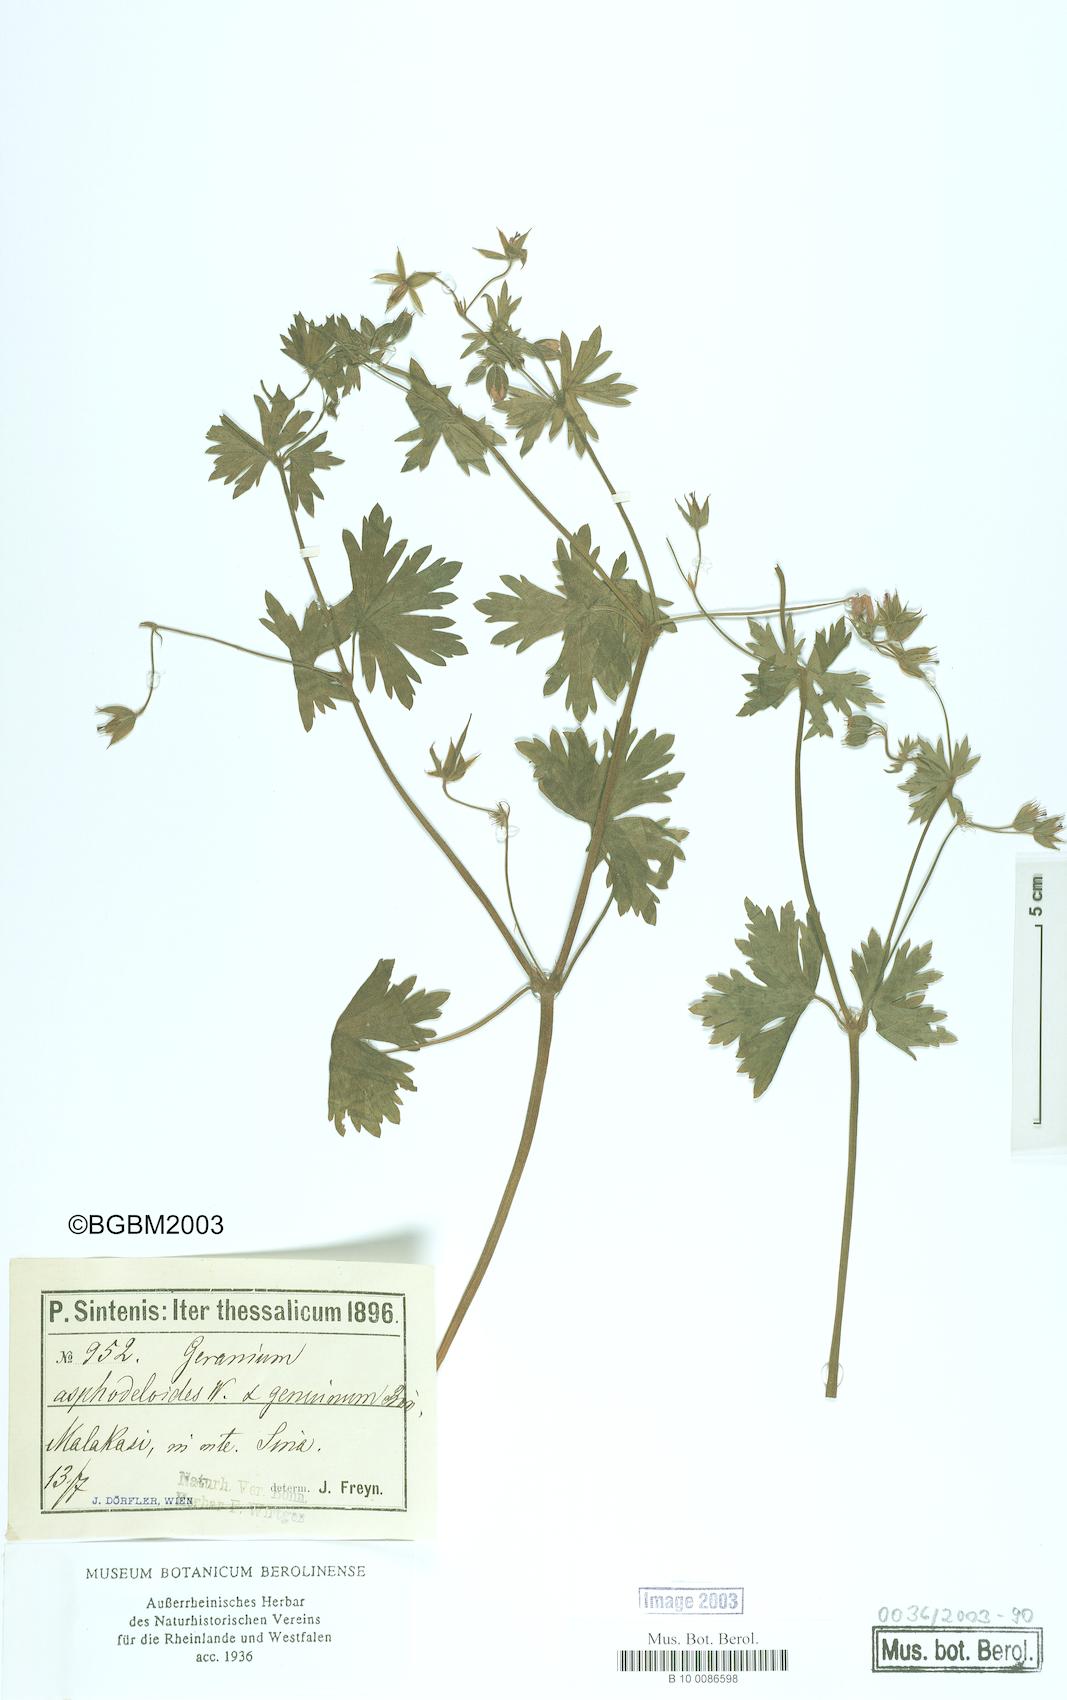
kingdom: Plantae
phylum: Tracheophyta
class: Magnoliopsida
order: Geraniales
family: Geraniaceae
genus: Geranium
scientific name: Geranium asphodeloides
